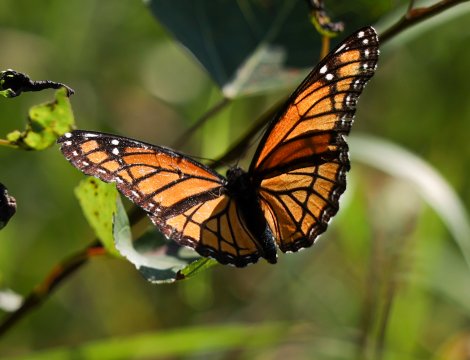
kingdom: Animalia
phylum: Arthropoda
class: Insecta
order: Lepidoptera
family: Nymphalidae
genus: Limenitis
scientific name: Limenitis archippus
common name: Viceroy
